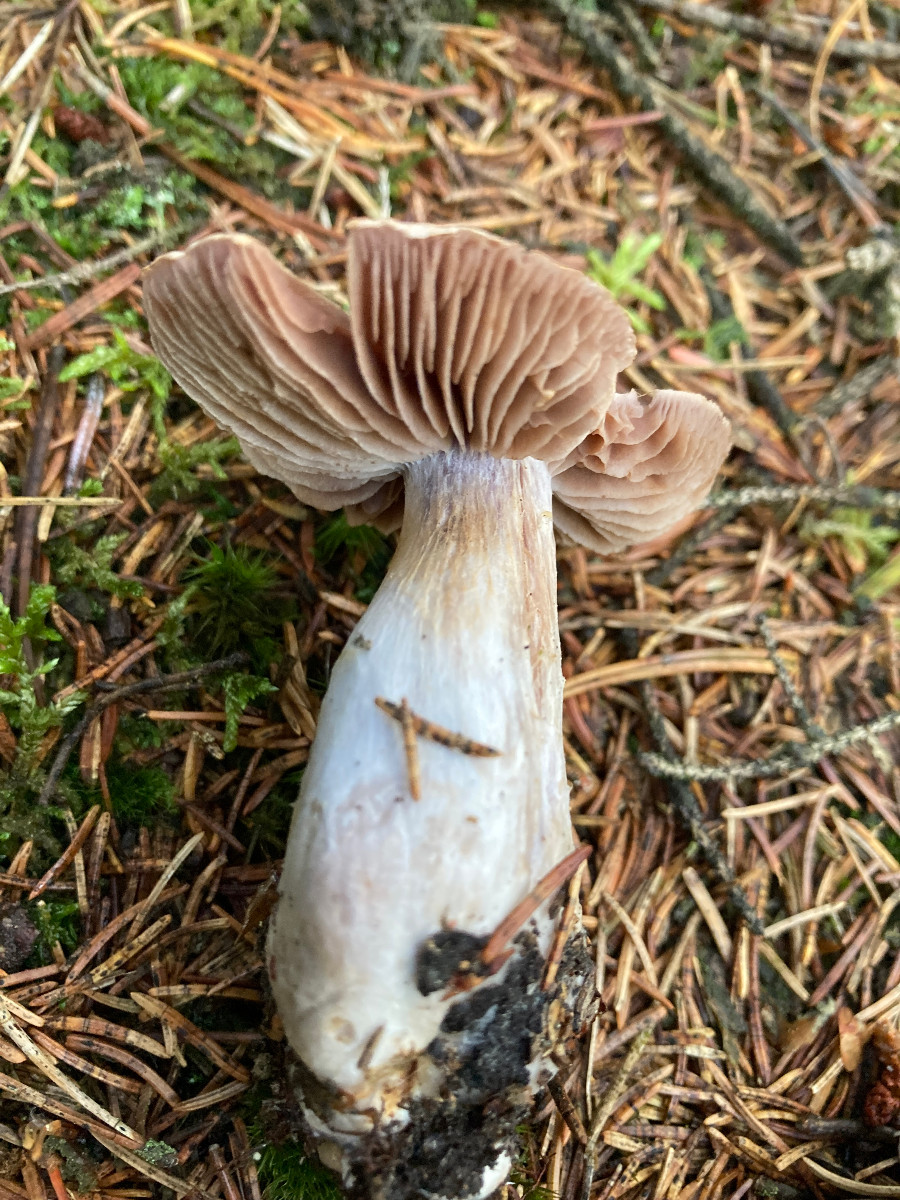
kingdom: Fungi
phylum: Basidiomycota
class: Agaricomycetes
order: Agaricales
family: Cortinariaceae
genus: Cortinarius
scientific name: Cortinarius
